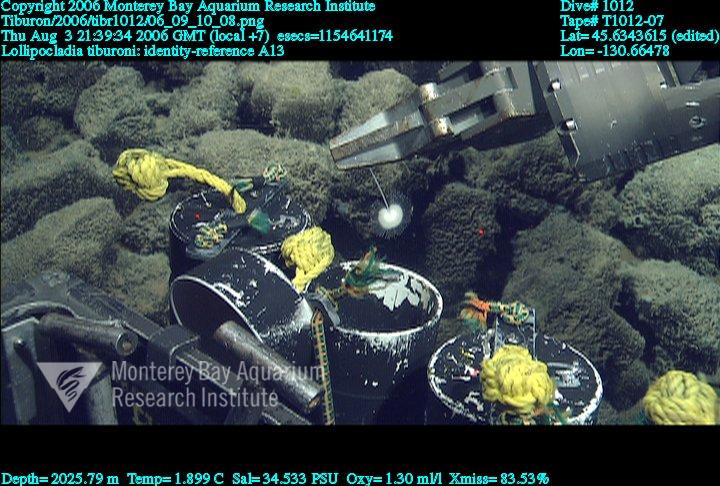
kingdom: Animalia
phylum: Porifera
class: Demospongiae
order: Poecilosclerida
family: Cladorhizidae
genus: Lollipocladia
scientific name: Lollipocladia tiburoni
